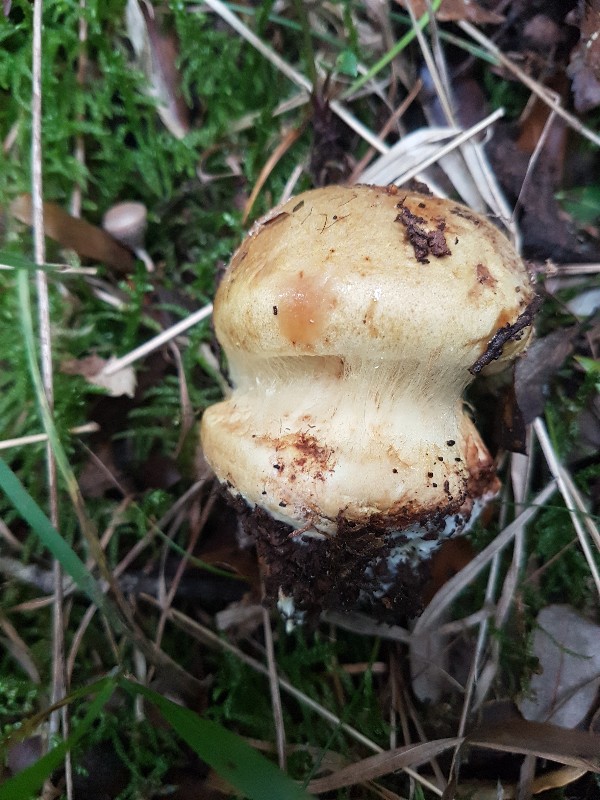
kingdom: Fungi
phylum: Basidiomycota
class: Agaricomycetes
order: Agaricales
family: Cortinariaceae
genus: Calonarius
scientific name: Calonarius quercilicis
